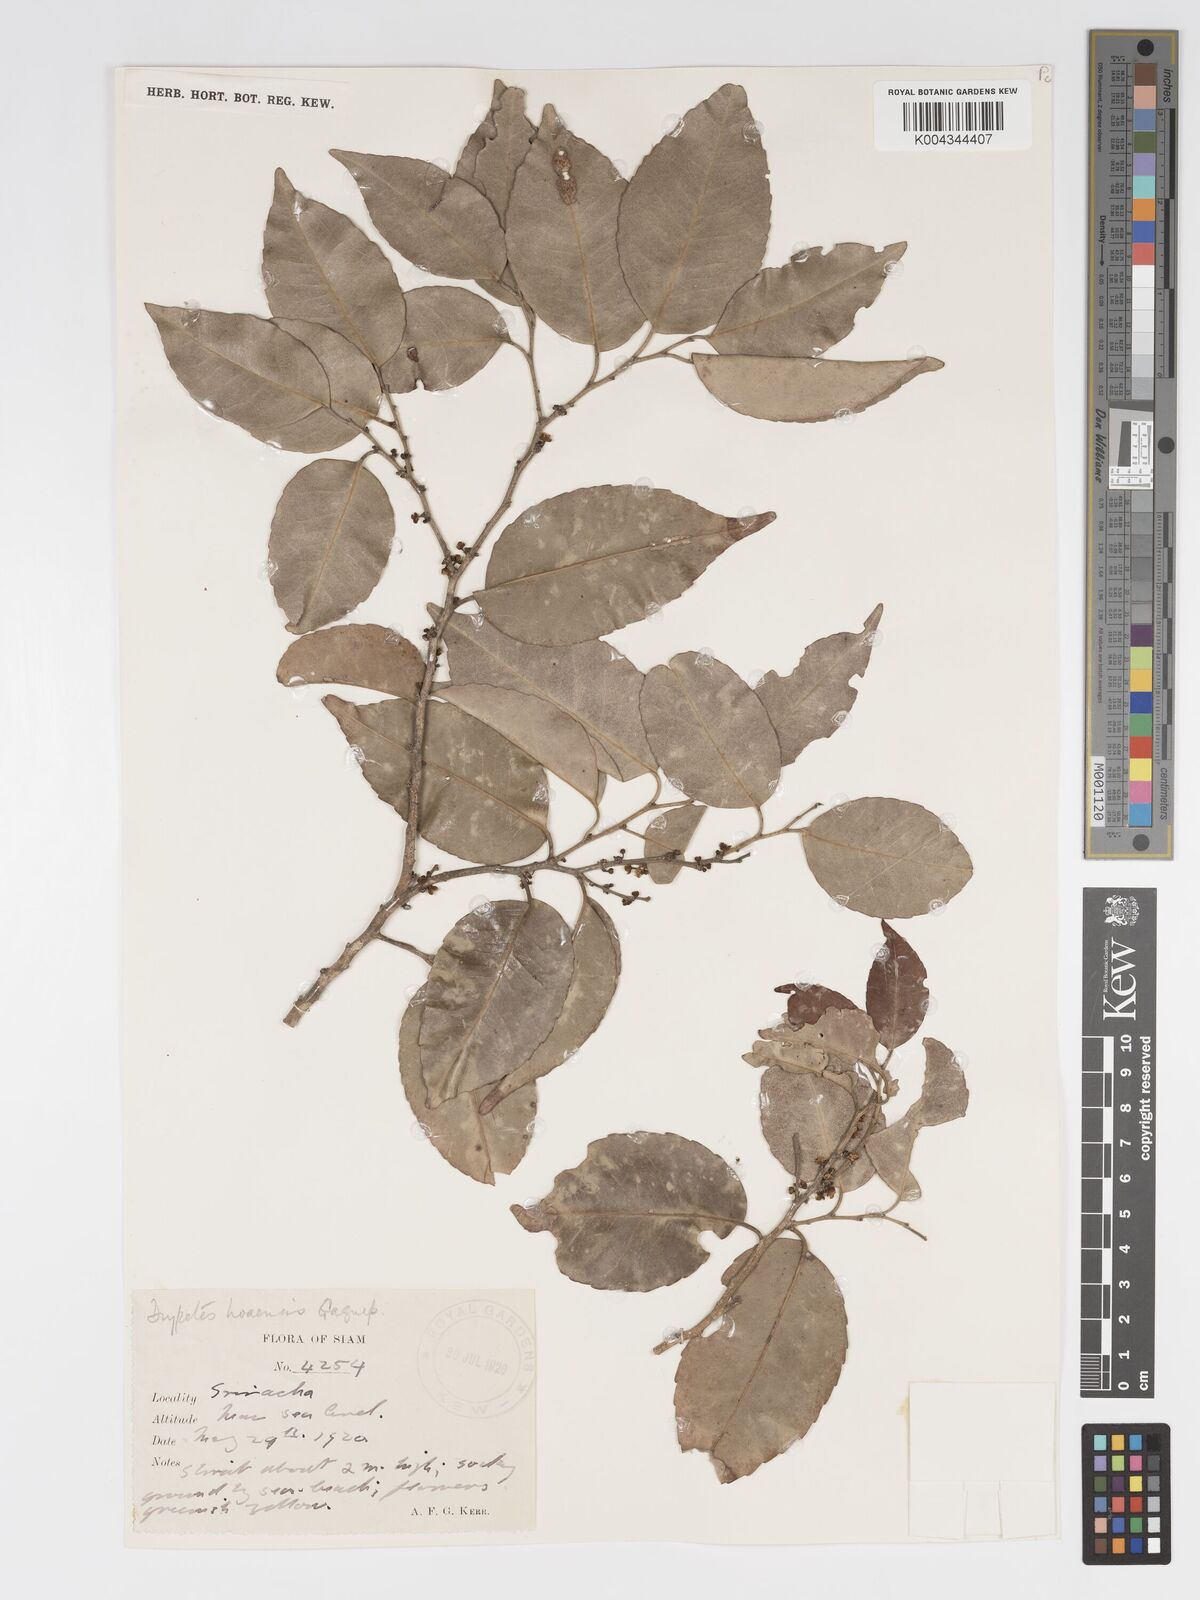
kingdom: Plantae
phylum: Tracheophyta
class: Magnoliopsida
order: Malpighiales
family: Putranjivaceae
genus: Drypetes
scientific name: Drypetes hoaensis
